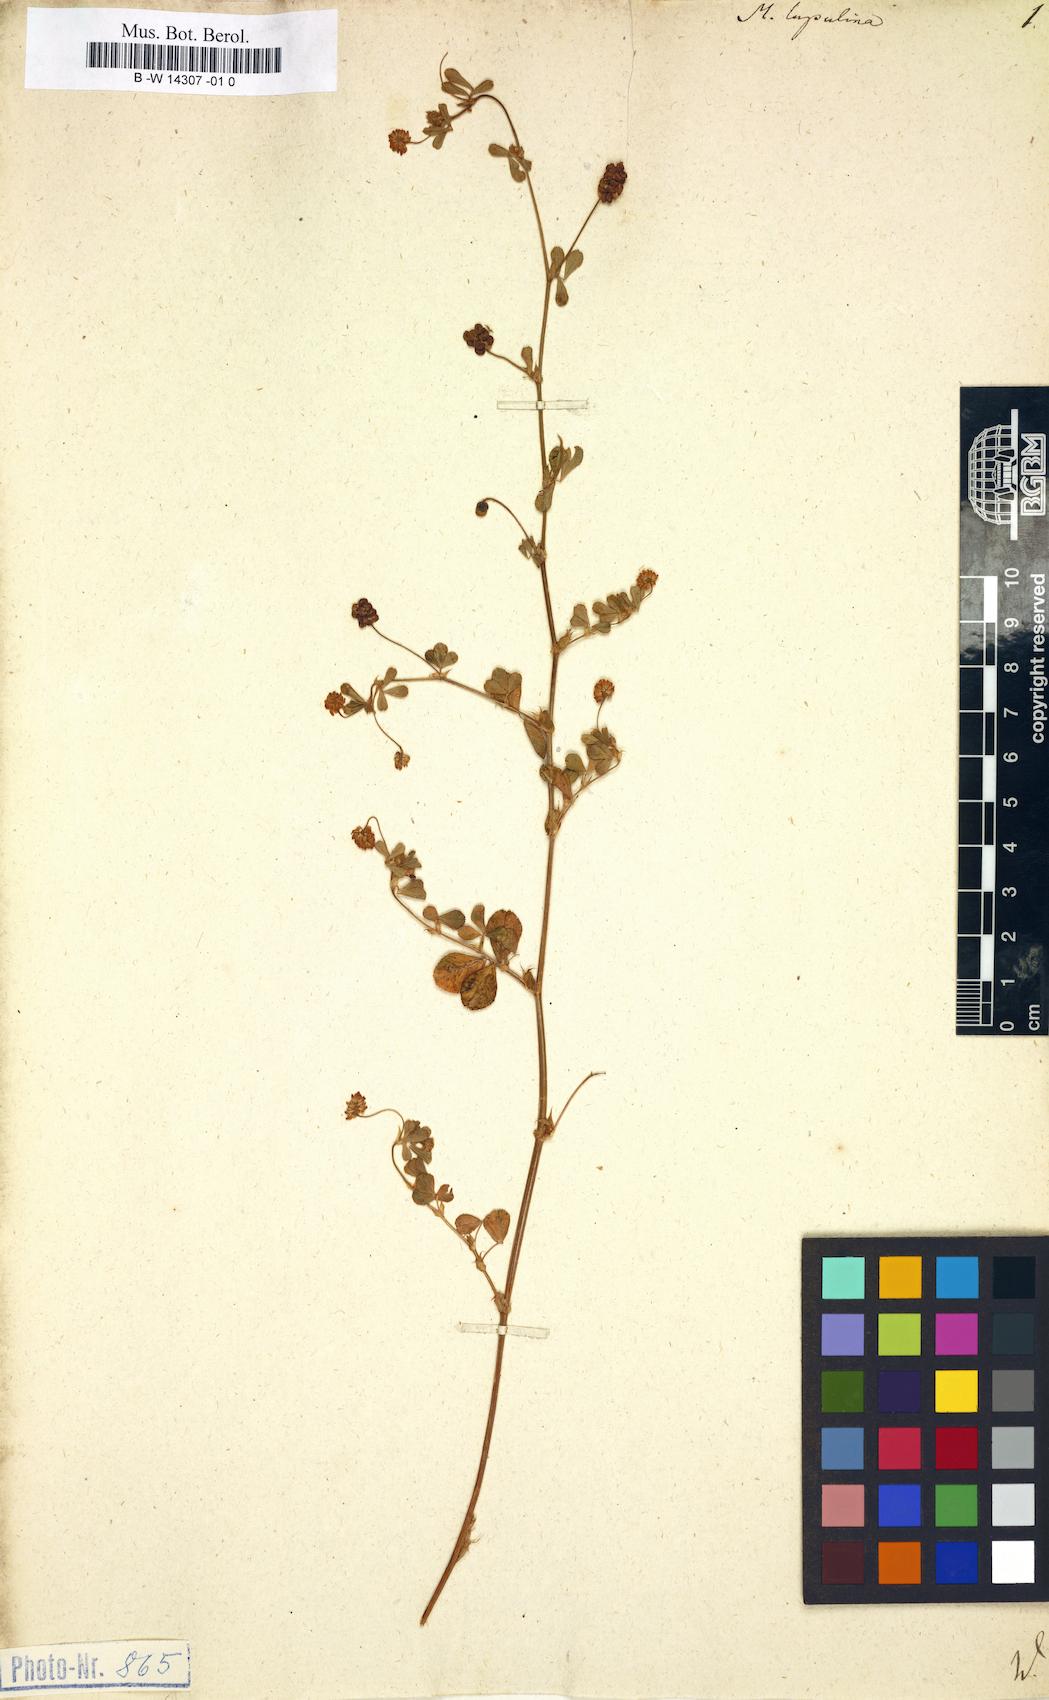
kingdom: Plantae
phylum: Tracheophyta
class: Magnoliopsida
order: Fabales
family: Fabaceae
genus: Medicago
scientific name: Medicago lupulina
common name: Black medick
